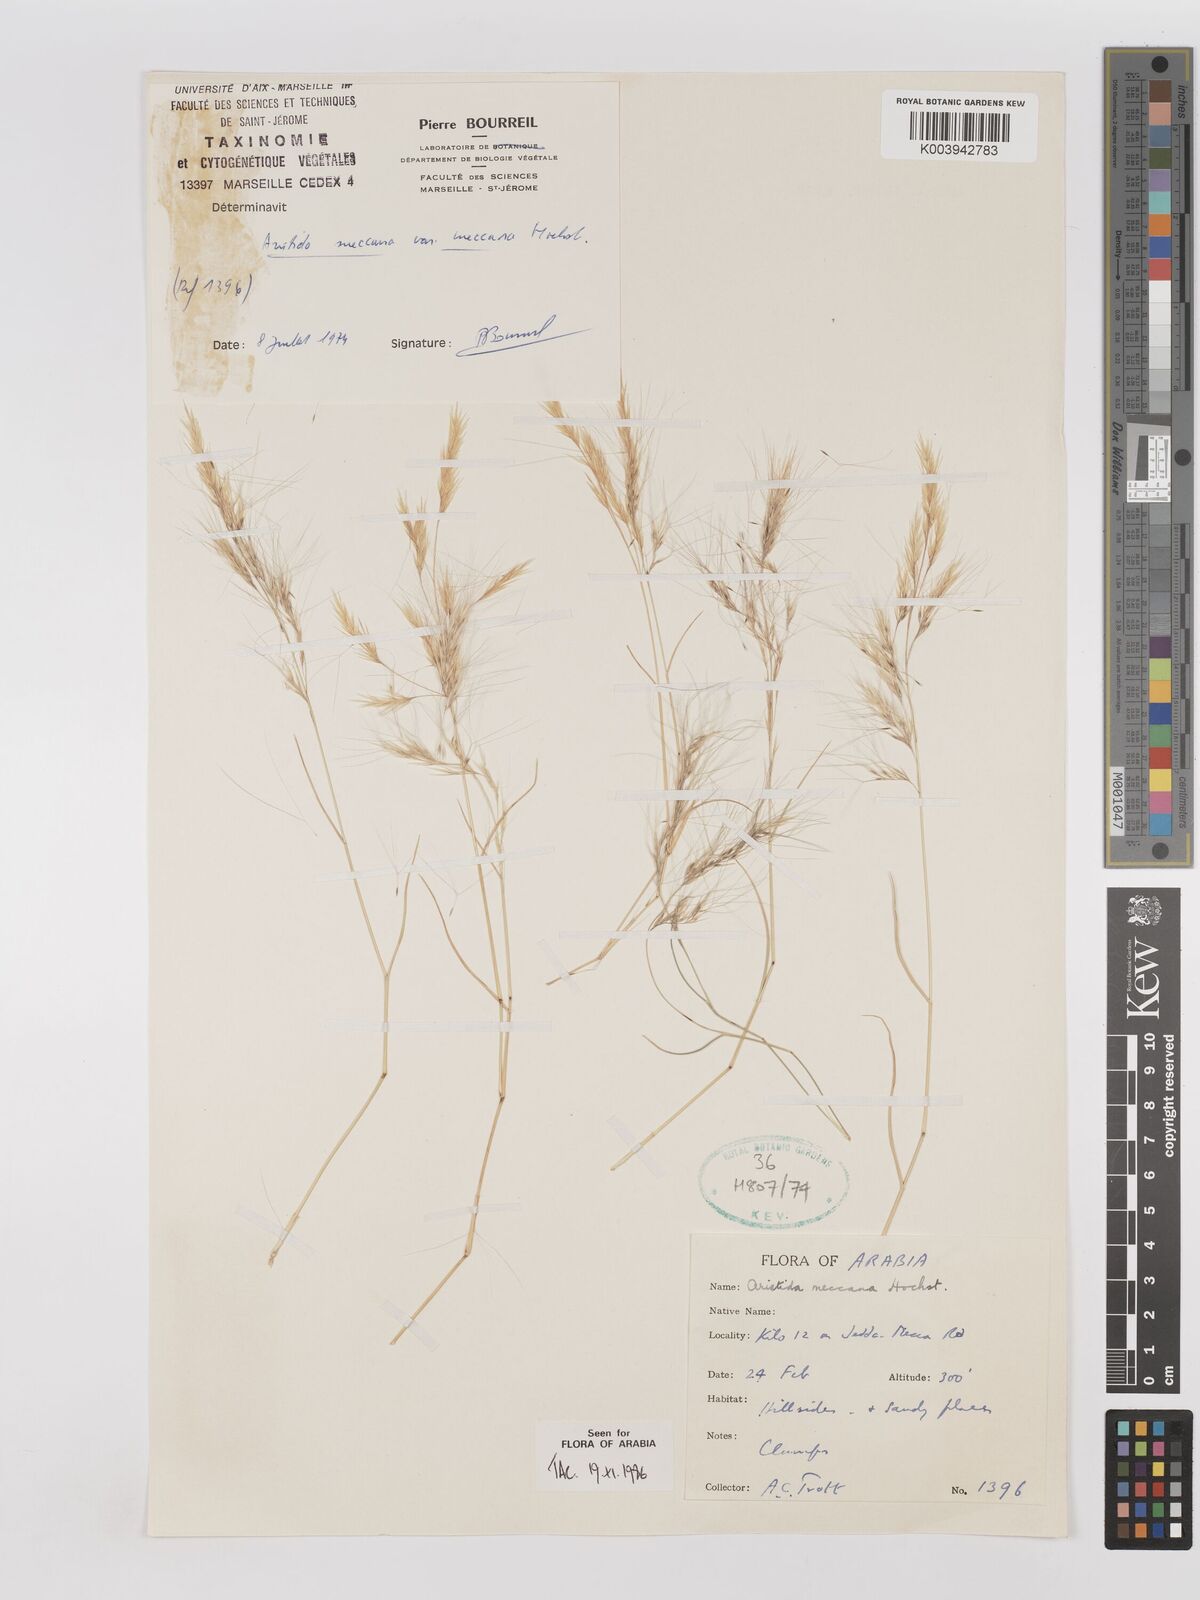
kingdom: Plantae
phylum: Tracheophyta
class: Liliopsida
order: Poales
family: Poaceae
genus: Aristida
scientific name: Aristida mutabilis
